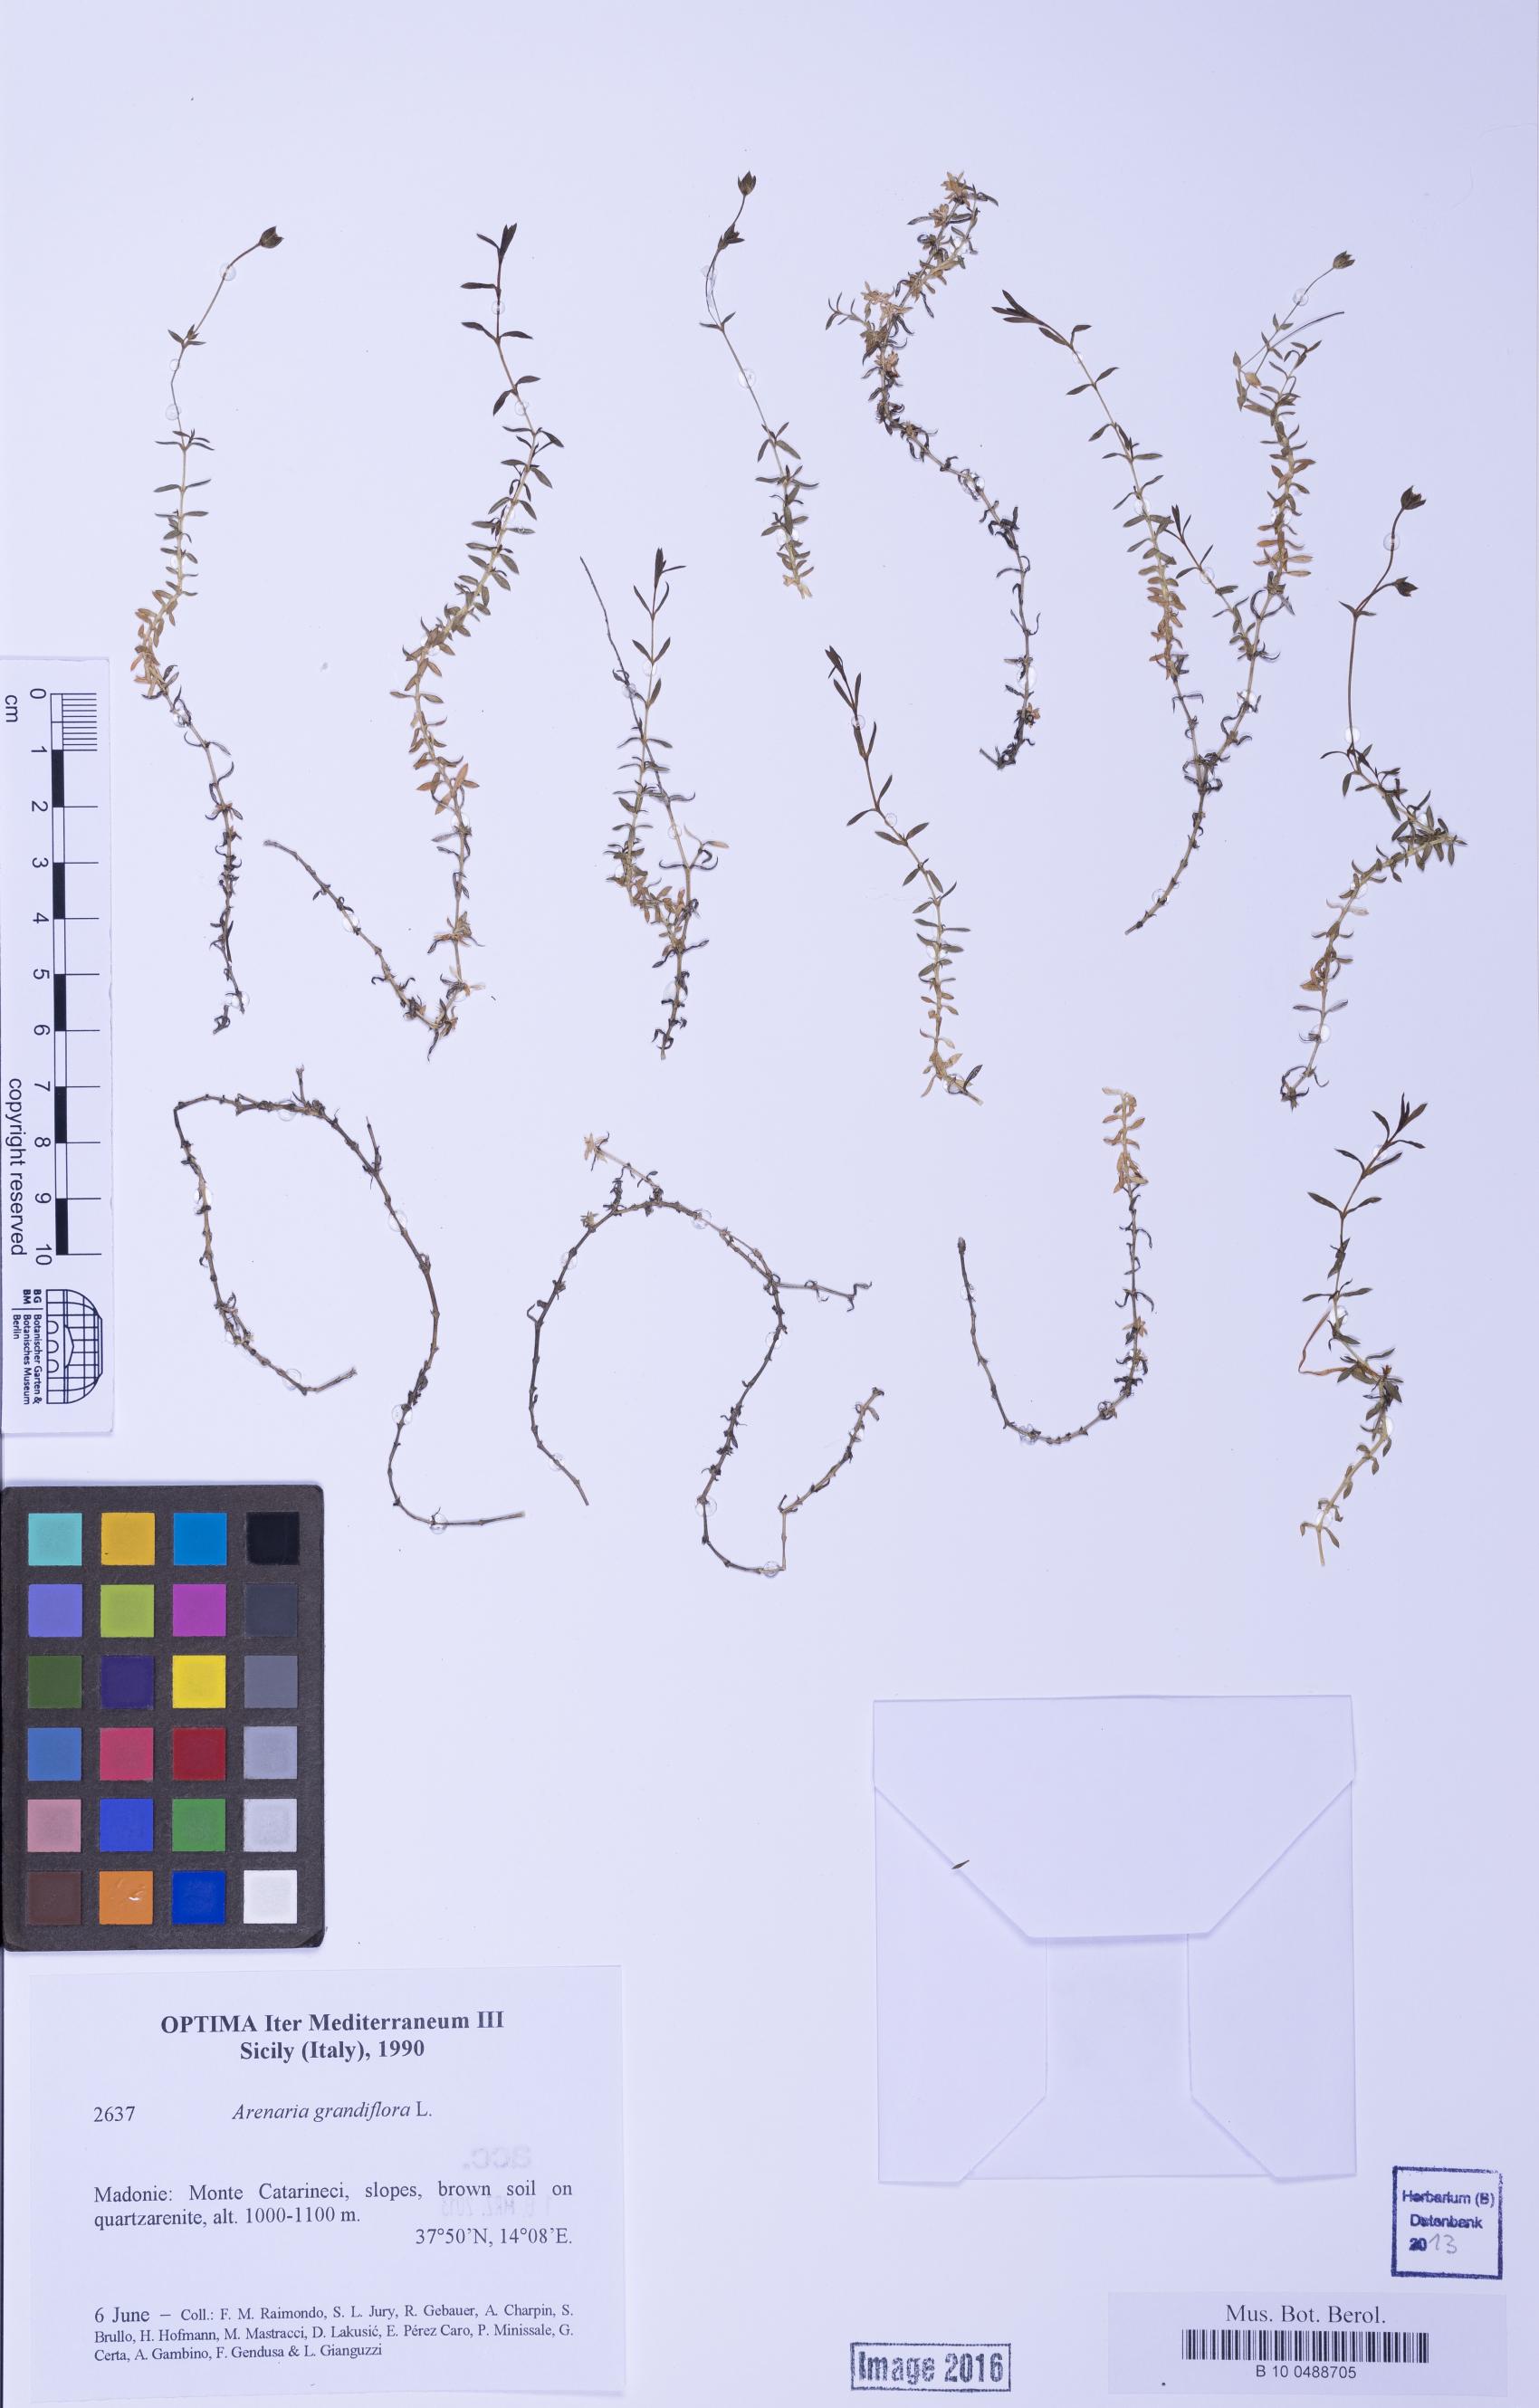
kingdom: Plantae
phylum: Tracheophyta
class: Magnoliopsida
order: Caryophyllales
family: Caryophyllaceae
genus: Arenaria
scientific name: Arenaria grandiflora
